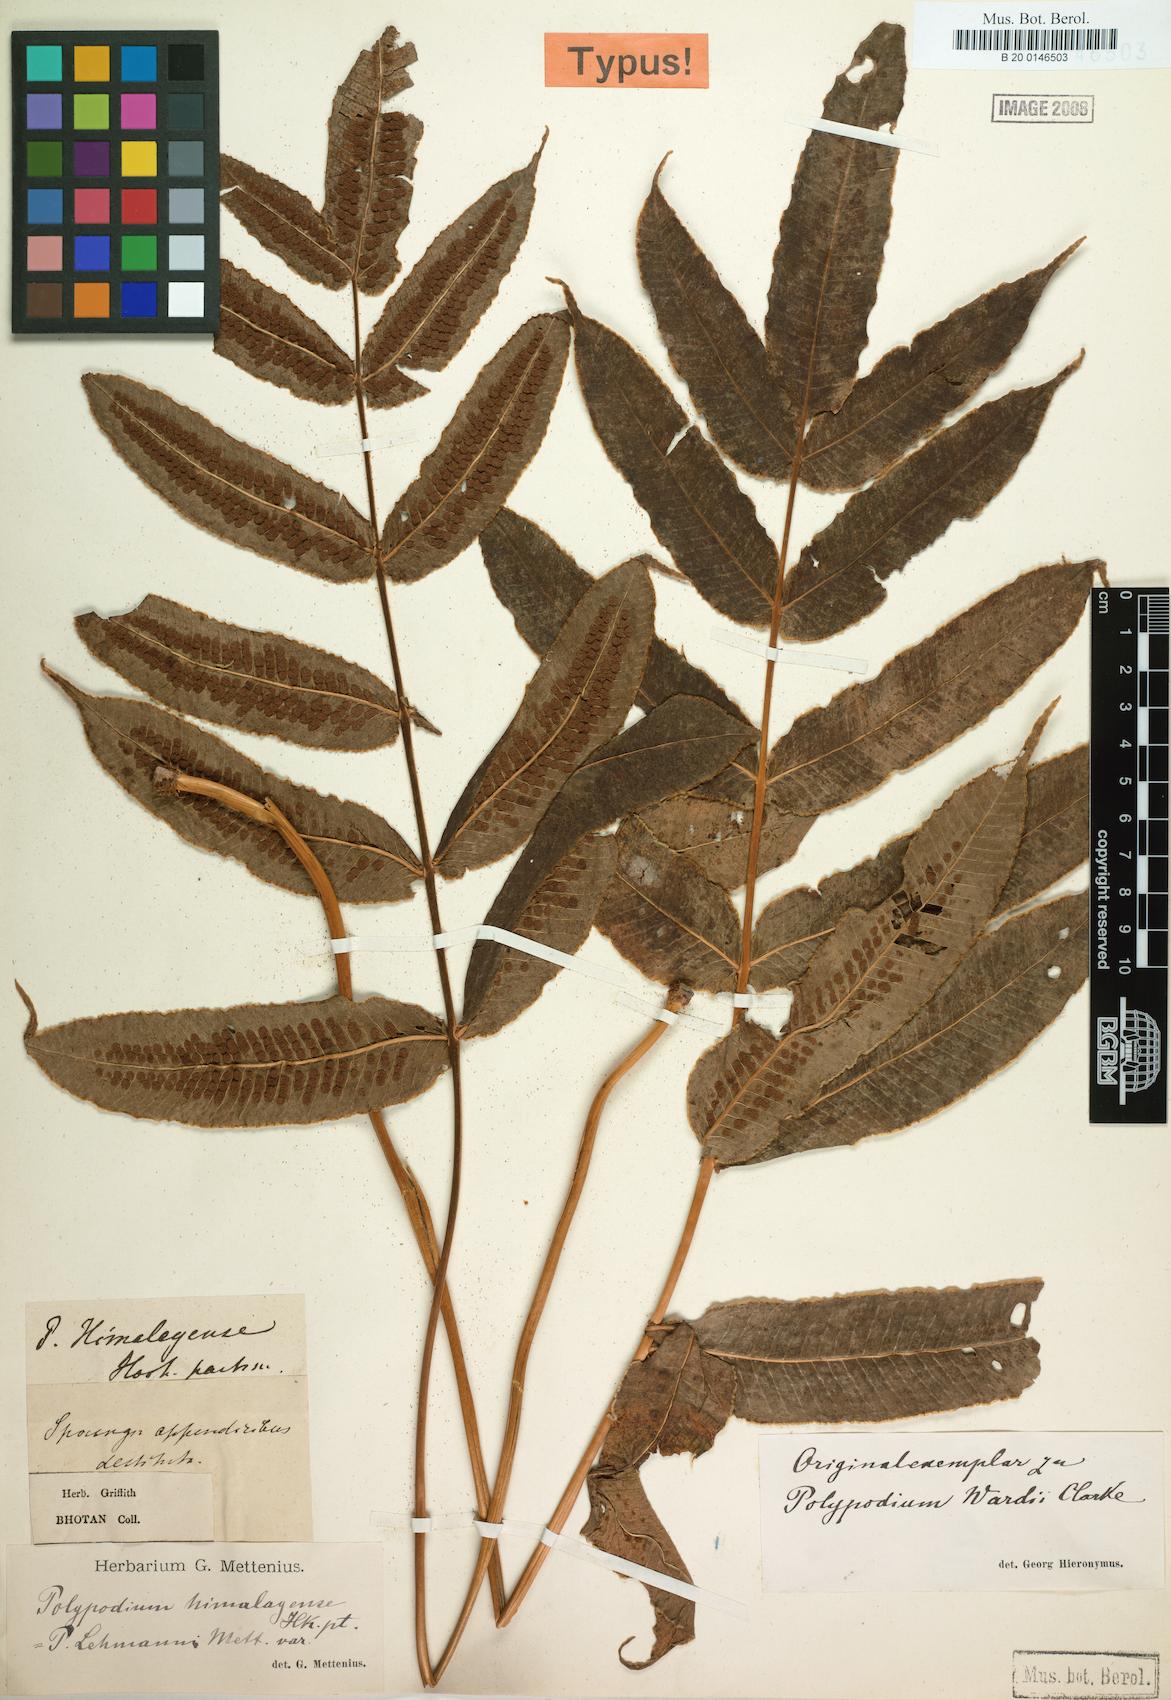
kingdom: Plantae
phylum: Tracheophyta
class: Polypodiopsida
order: Polypodiales
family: Polypodiaceae
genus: Selliguea
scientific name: Selliguea wardii
